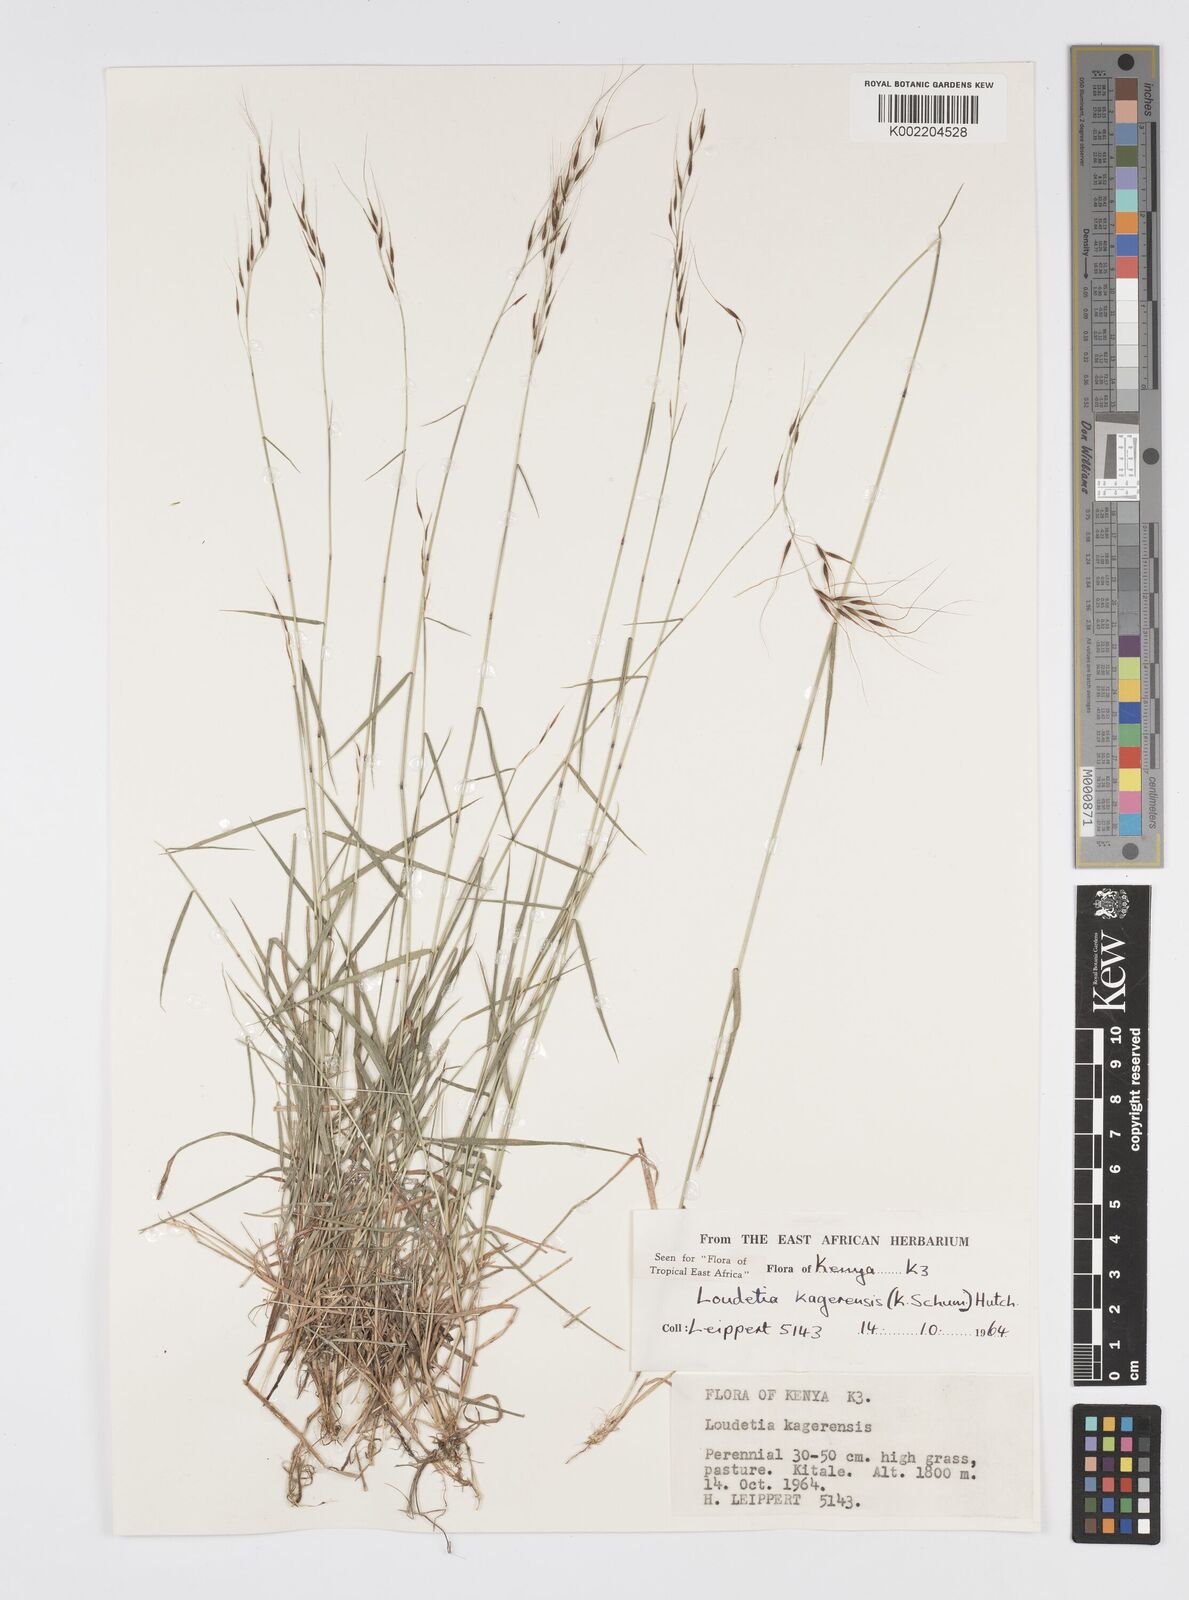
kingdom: Plantae
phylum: Tracheophyta
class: Liliopsida
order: Poales
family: Poaceae
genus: Loudetia
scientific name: Loudetia kagerensis
